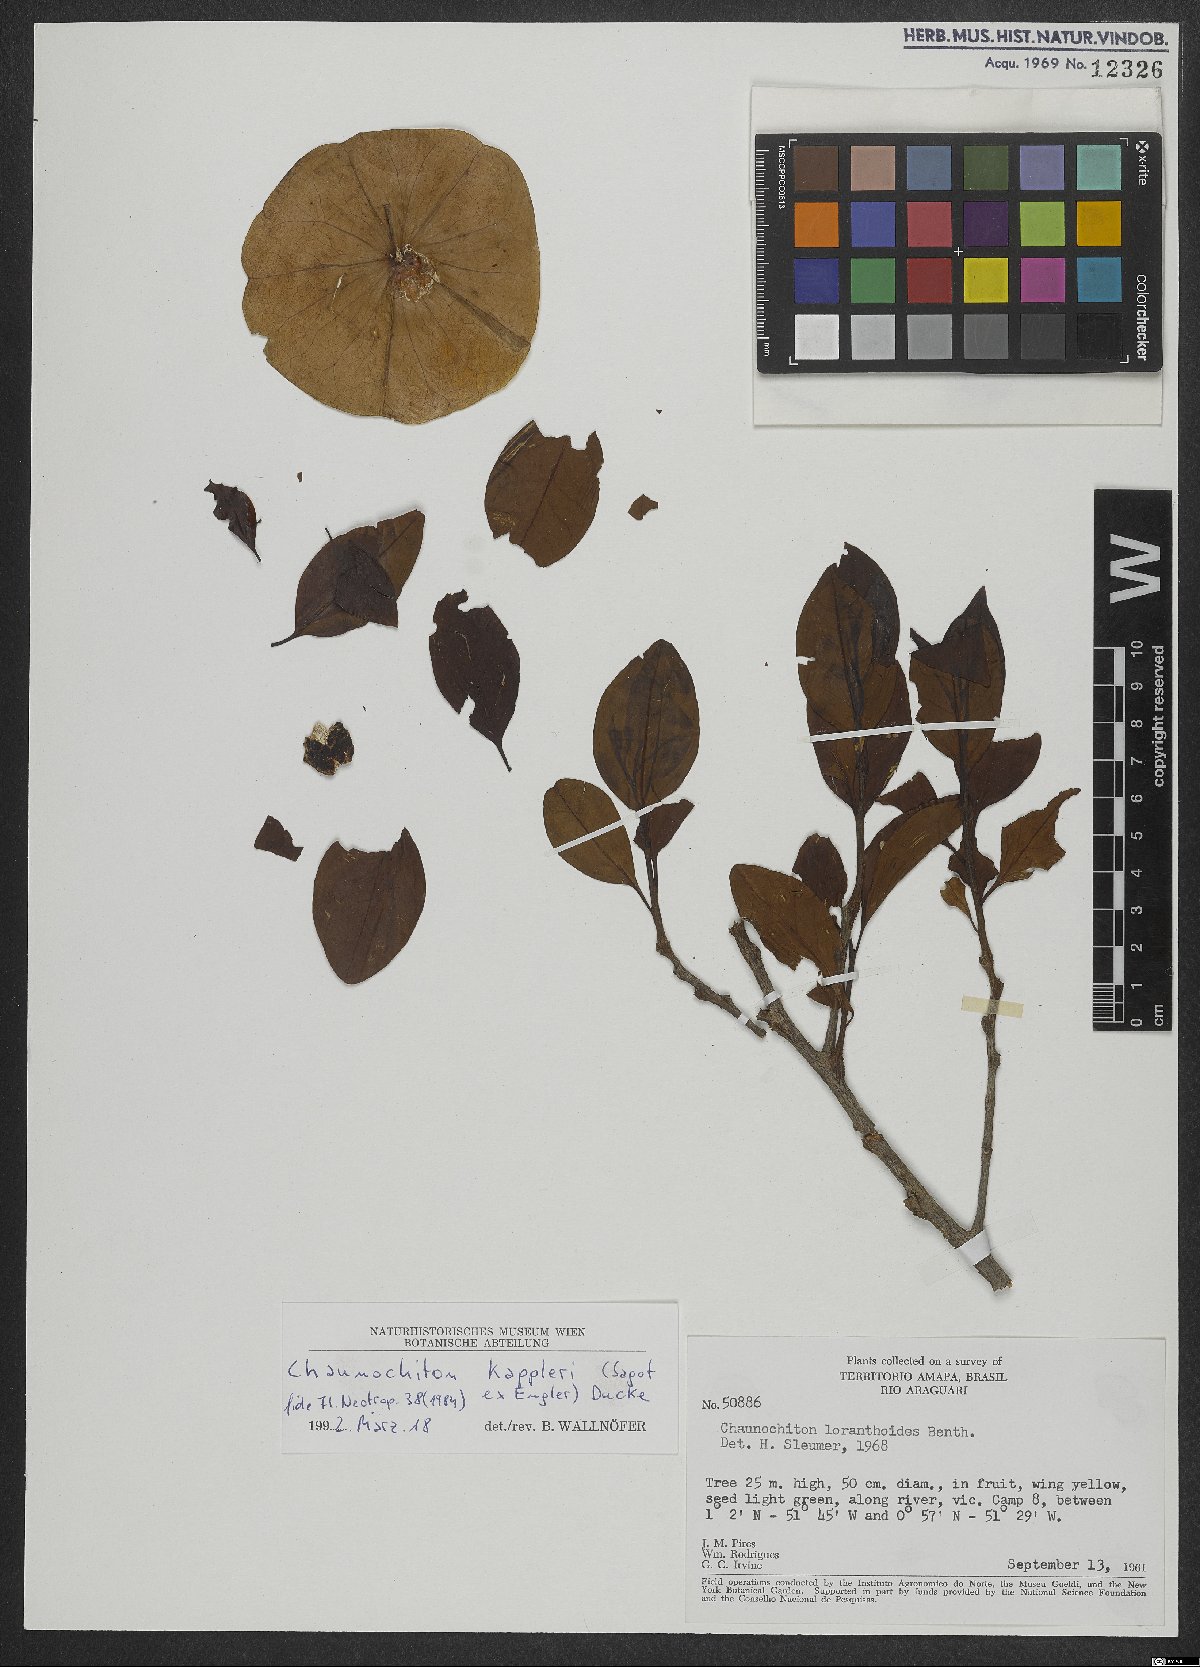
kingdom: Plantae
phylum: Tracheophyta
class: Magnoliopsida
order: Santalales
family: Aptandraceae
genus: Chaunochiton
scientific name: Chaunochiton kappleri
